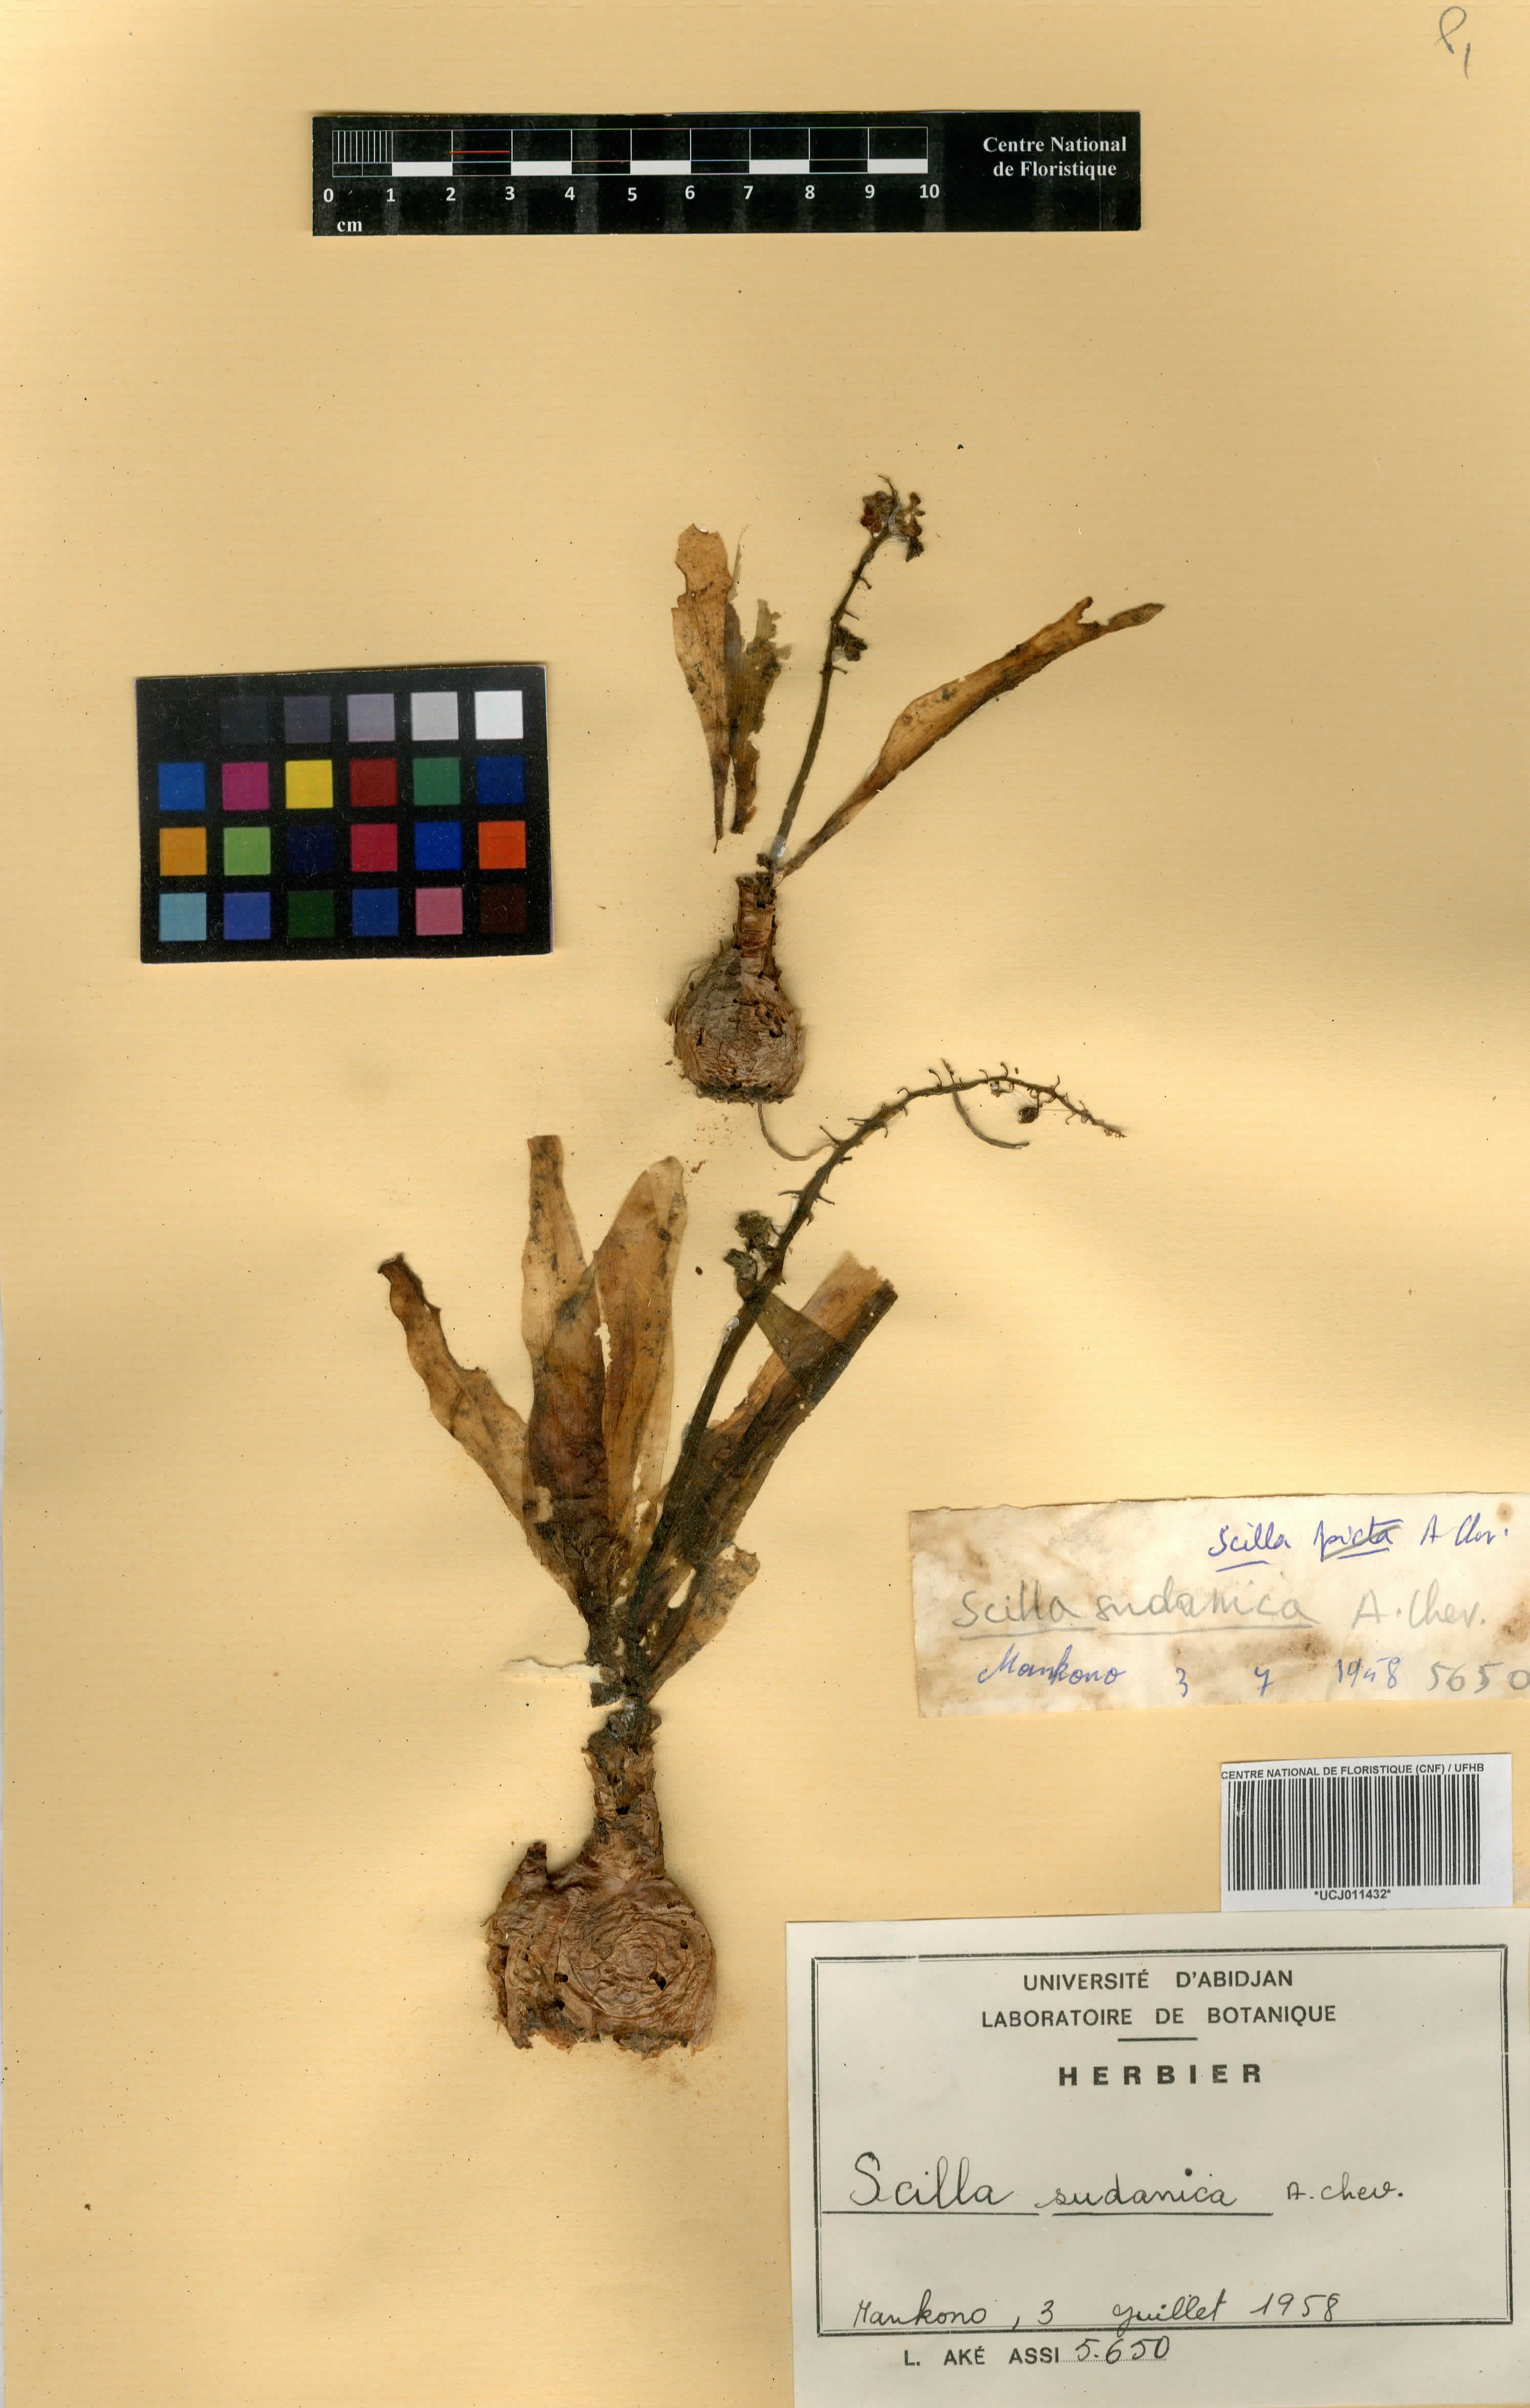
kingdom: Plantae
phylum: Tracheophyta
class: Liliopsida
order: Asparagales
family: Asparagaceae
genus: Ledebouria
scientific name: Ledebouria sudanica
